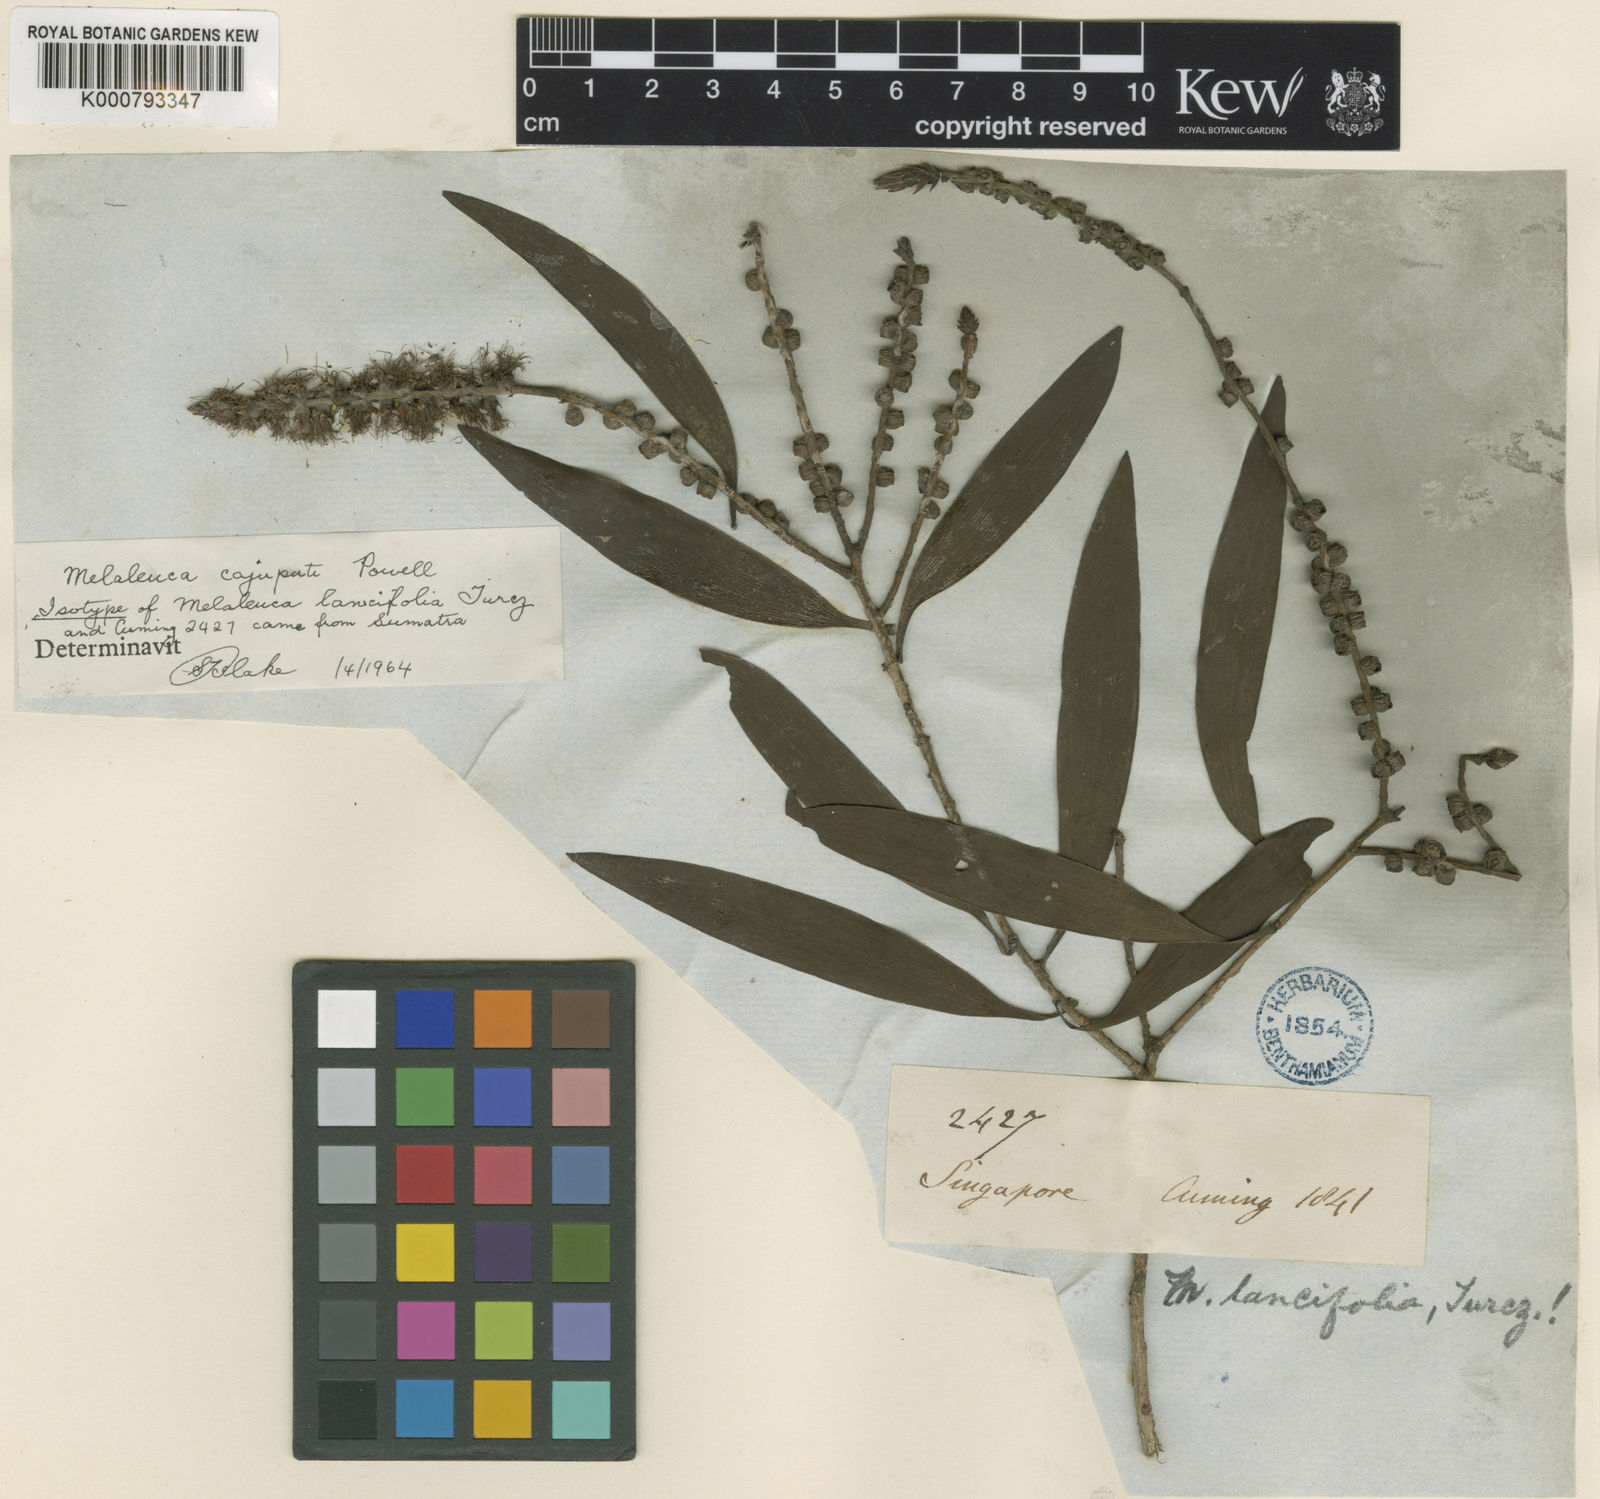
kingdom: Plantae
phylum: Tracheophyta
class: Magnoliopsida
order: Myrtales
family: Myrtaceae
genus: Melaleuca
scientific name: Melaleuca cajuputi
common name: Cajuput
